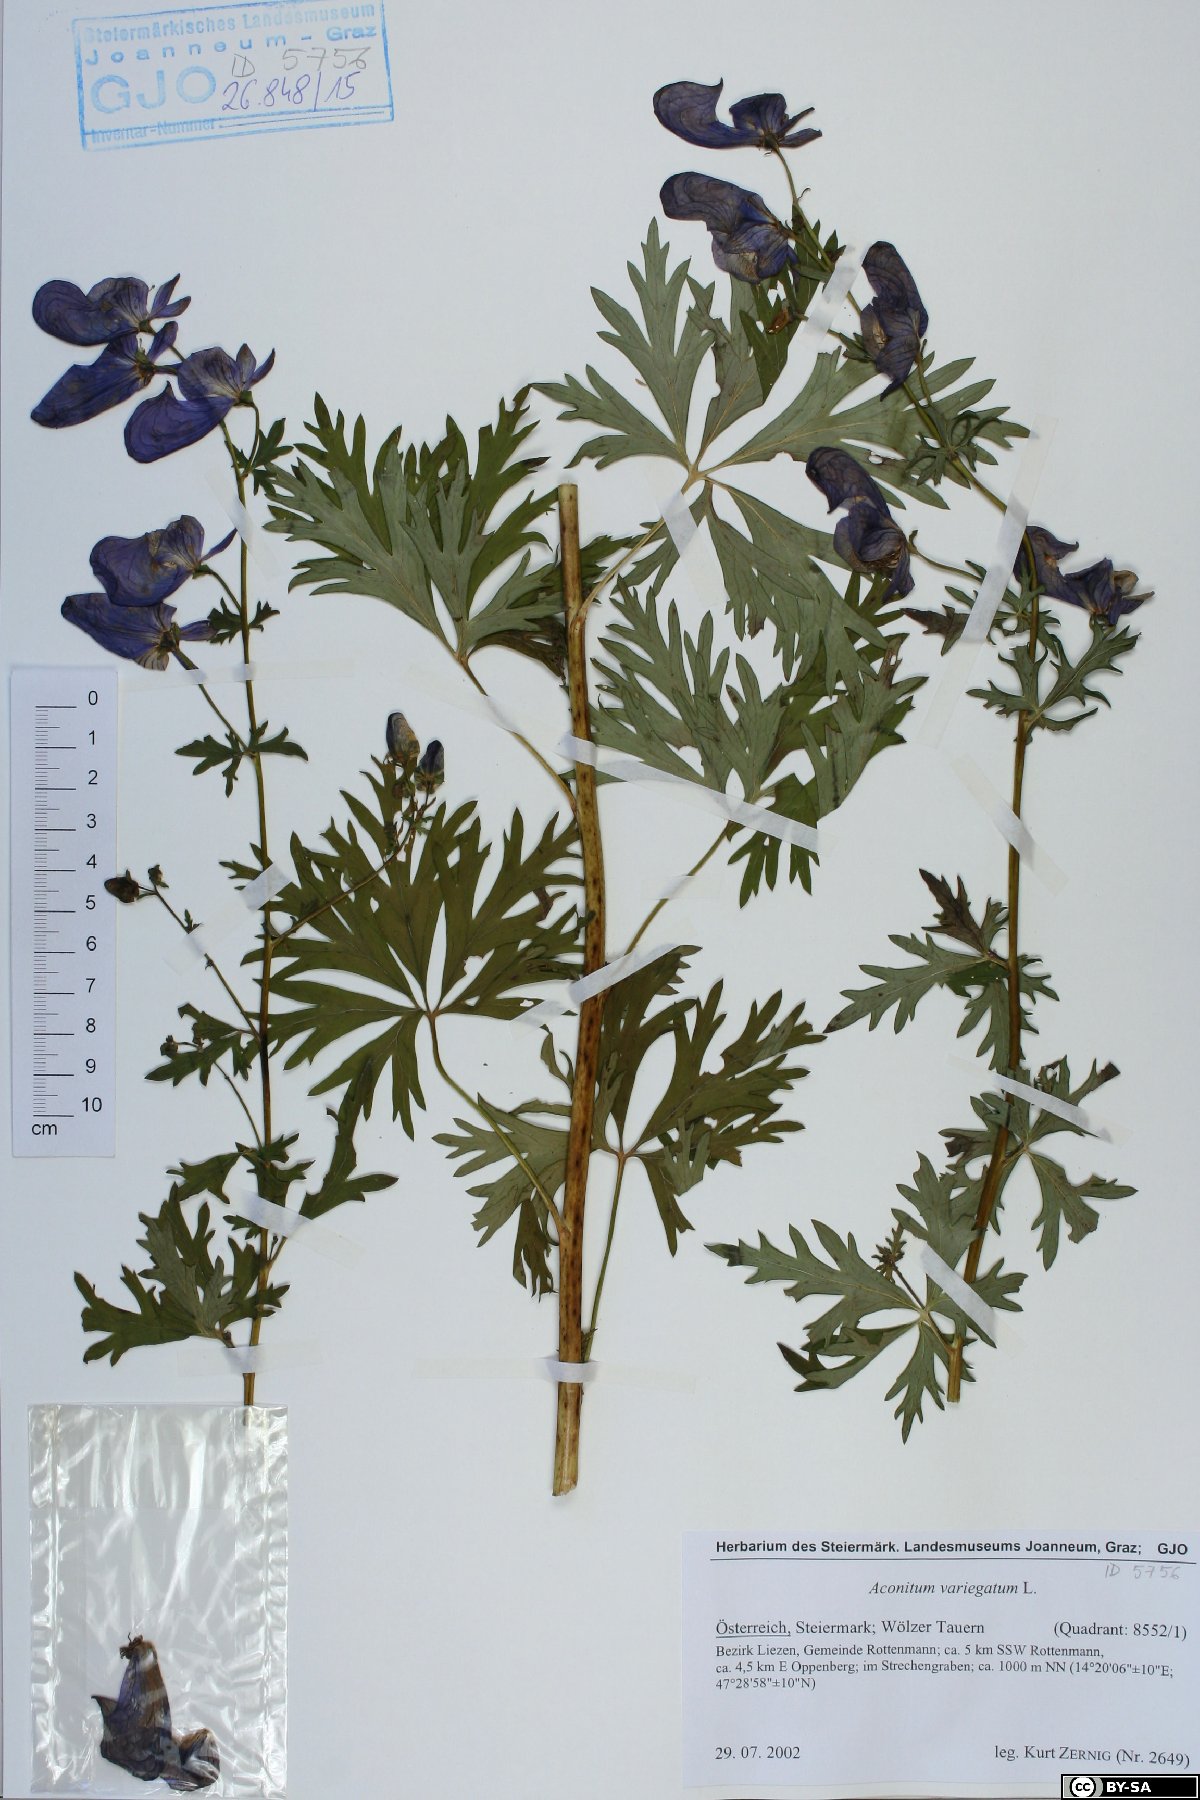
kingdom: Plantae
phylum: Tracheophyta
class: Magnoliopsida
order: Ranunculales
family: Ranunculaceae
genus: Aconitum
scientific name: Aconitum variegatum
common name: Manchurian monkshood
